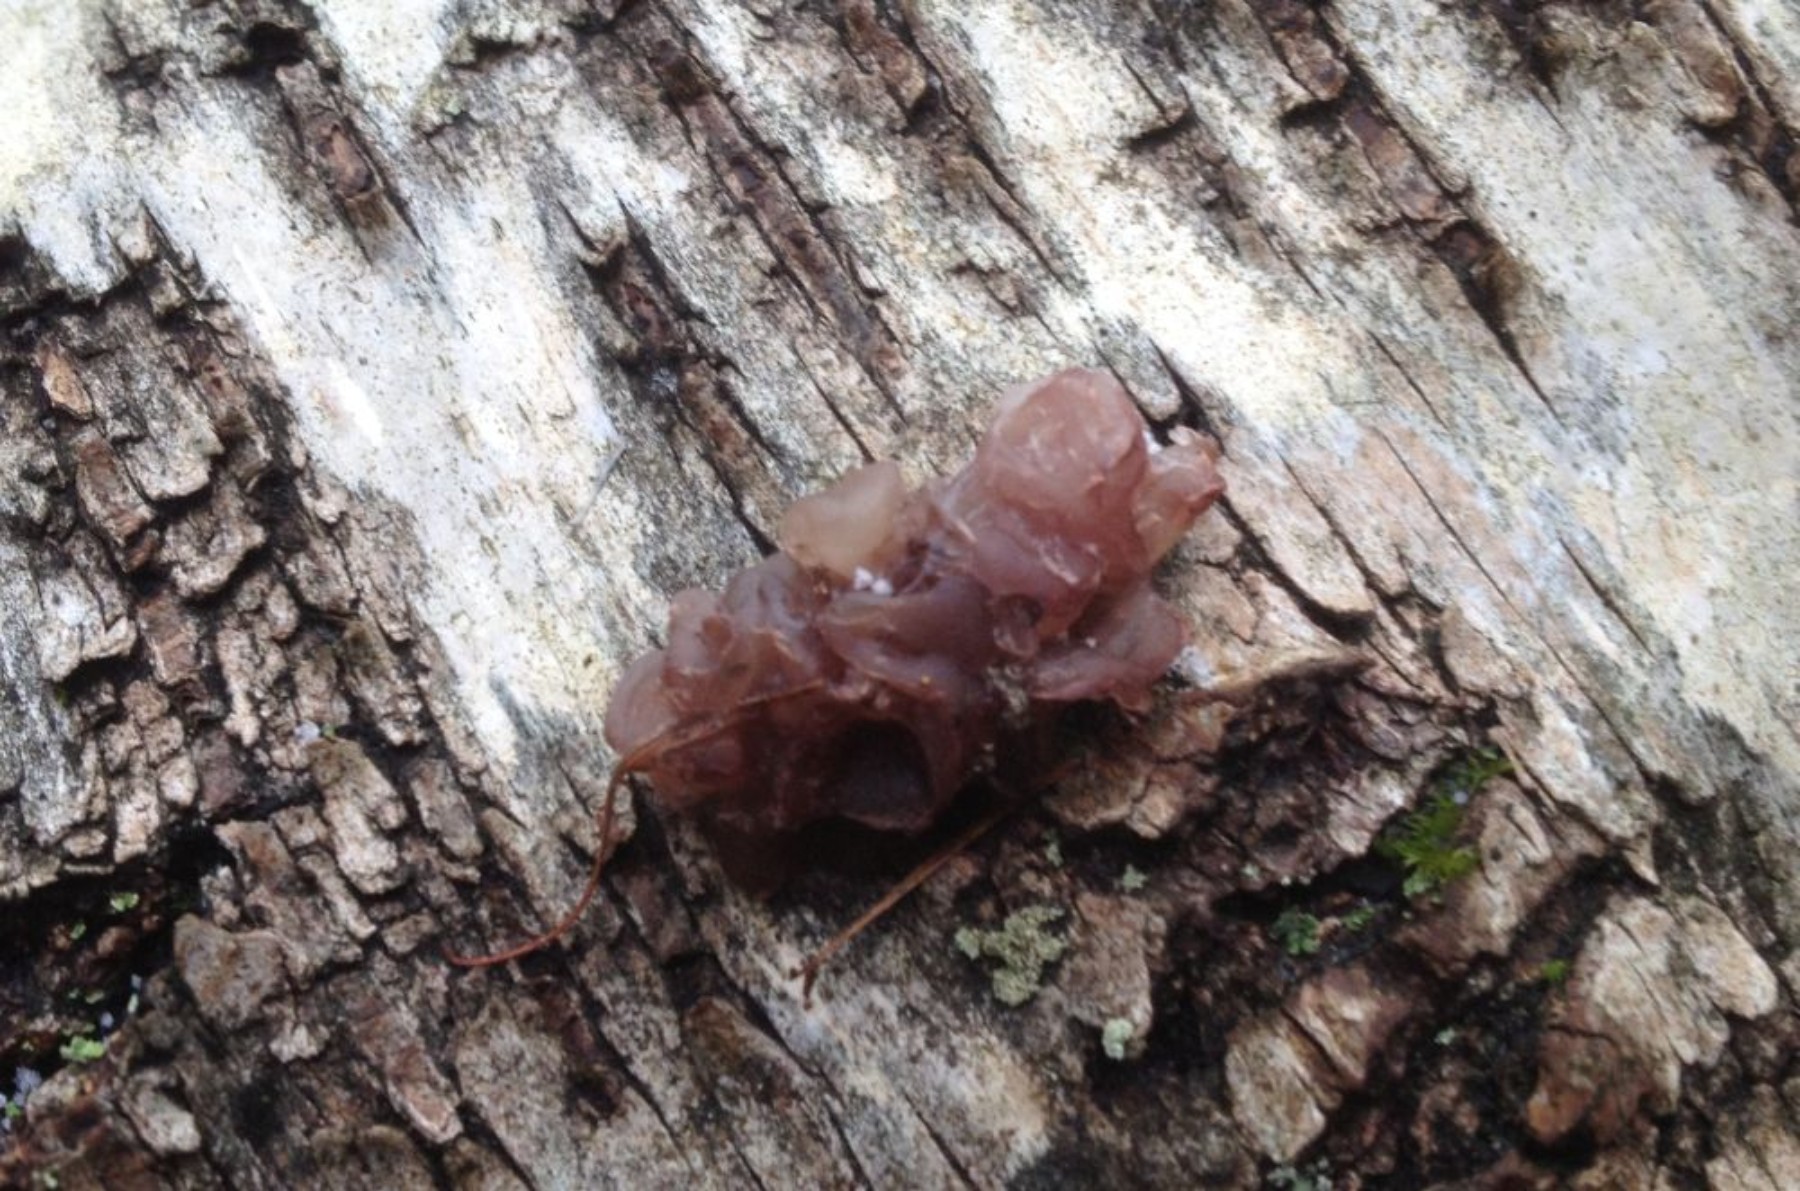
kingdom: Fungi
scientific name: Fungi
